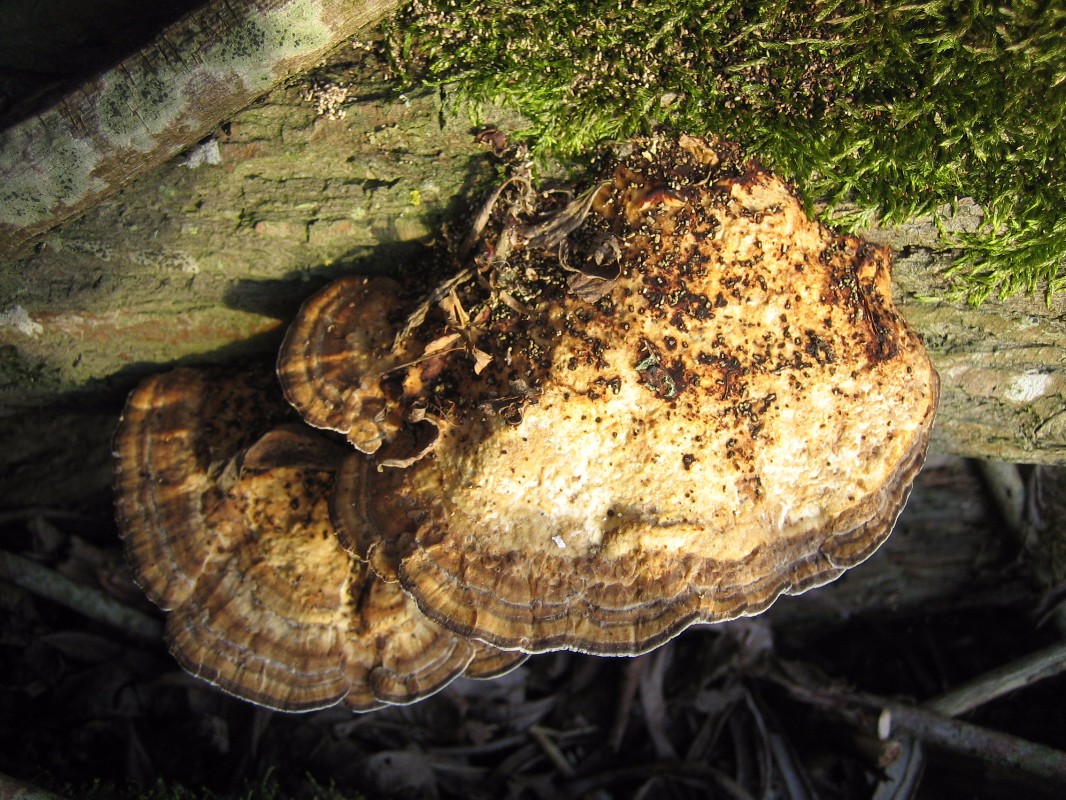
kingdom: Fungi
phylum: Basidiomycota
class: Agaricomycetes
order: Polyporales
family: Polyporaceae
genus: Daedaleopsis
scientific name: Daedaleopsis confragosa
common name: rødmende læderporesvamp
